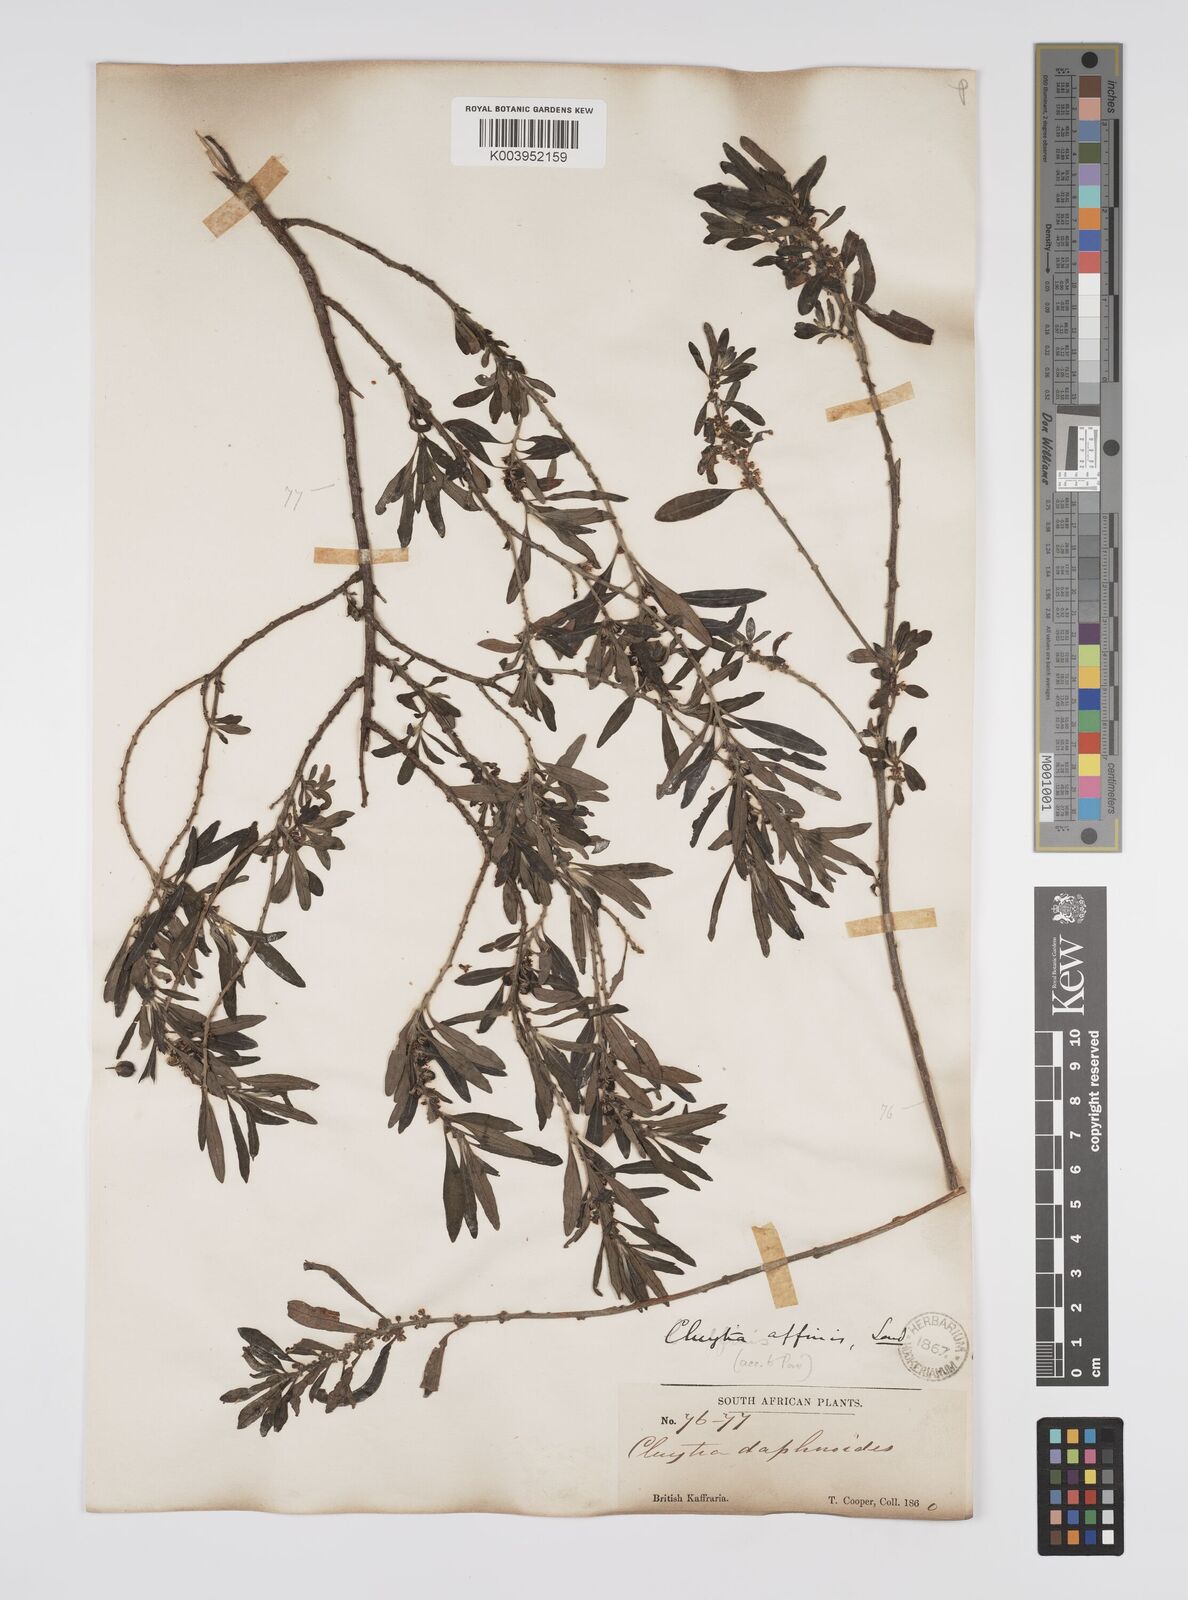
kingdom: Plantae
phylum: Tracheophyta
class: Magnoliopsida
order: Malpighiales
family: Peraceae
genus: Clutia
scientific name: Clutia affinis
